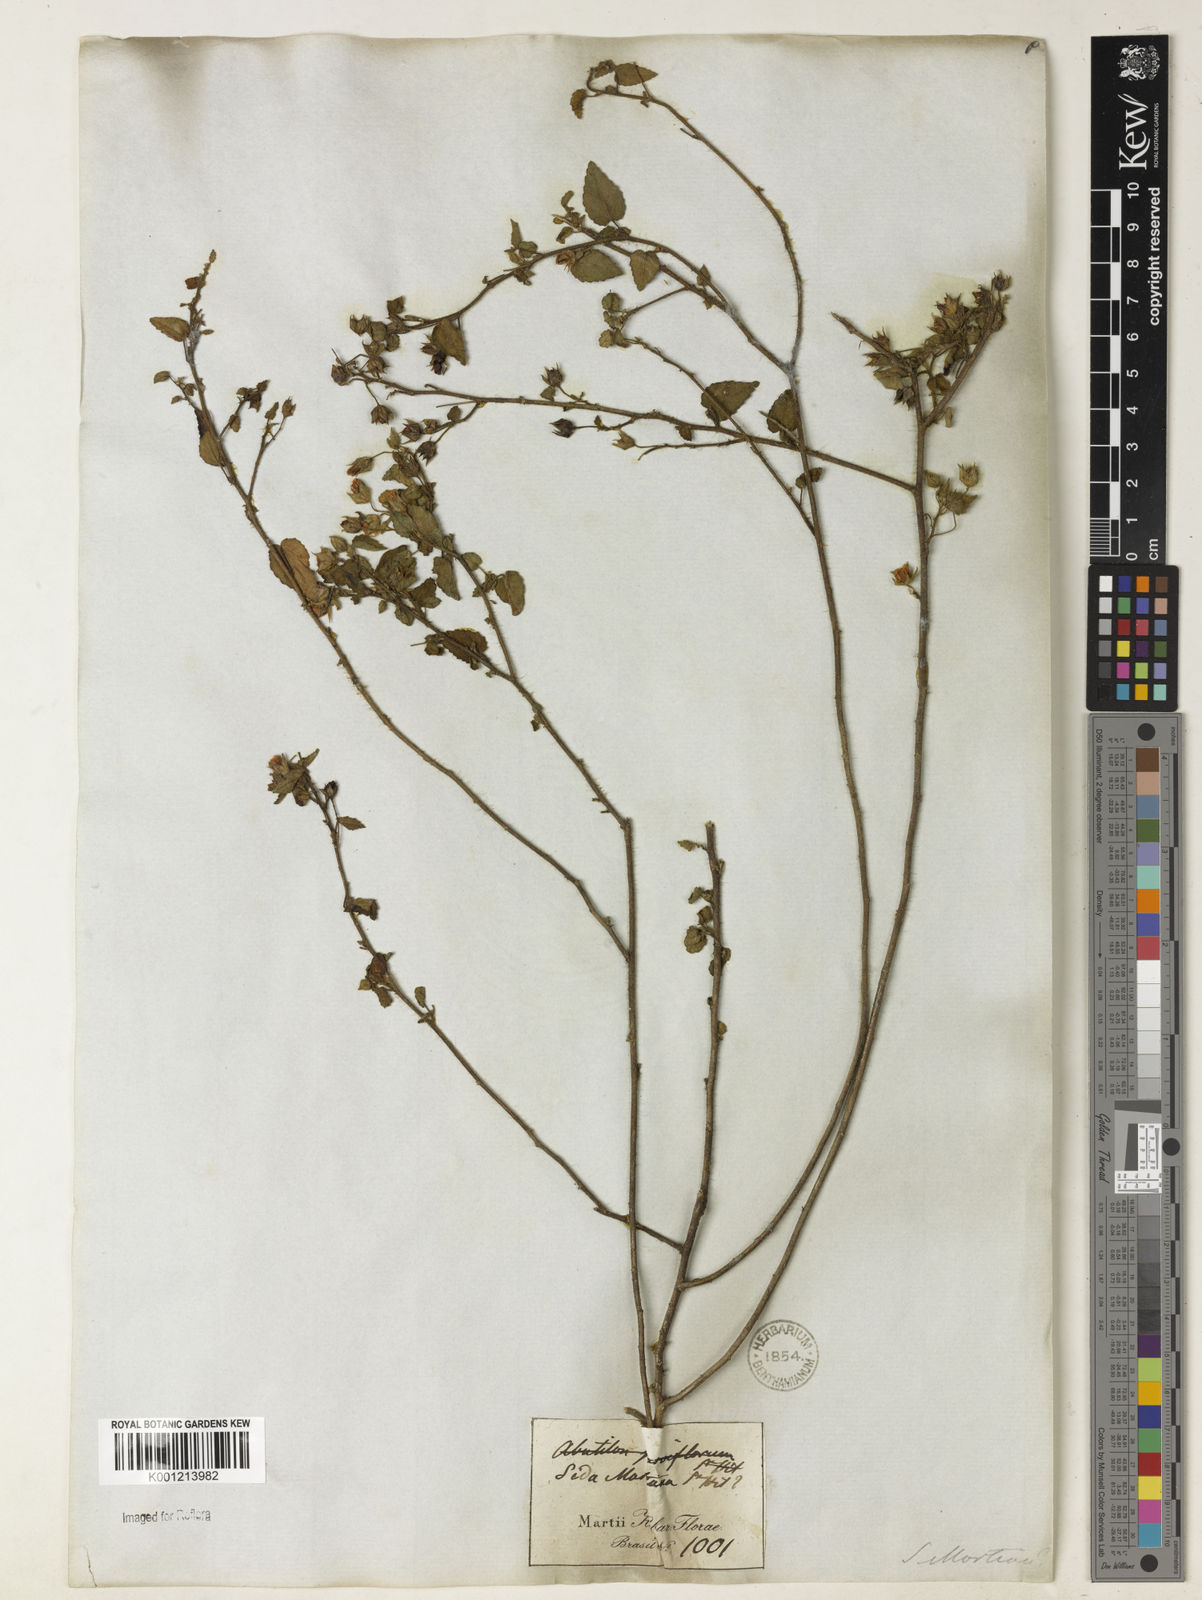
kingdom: Plantae
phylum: Tracheophyta
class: Magnoliopsida
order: Malvales
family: Malvaceae
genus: Sida
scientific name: Sida aurantiaca
